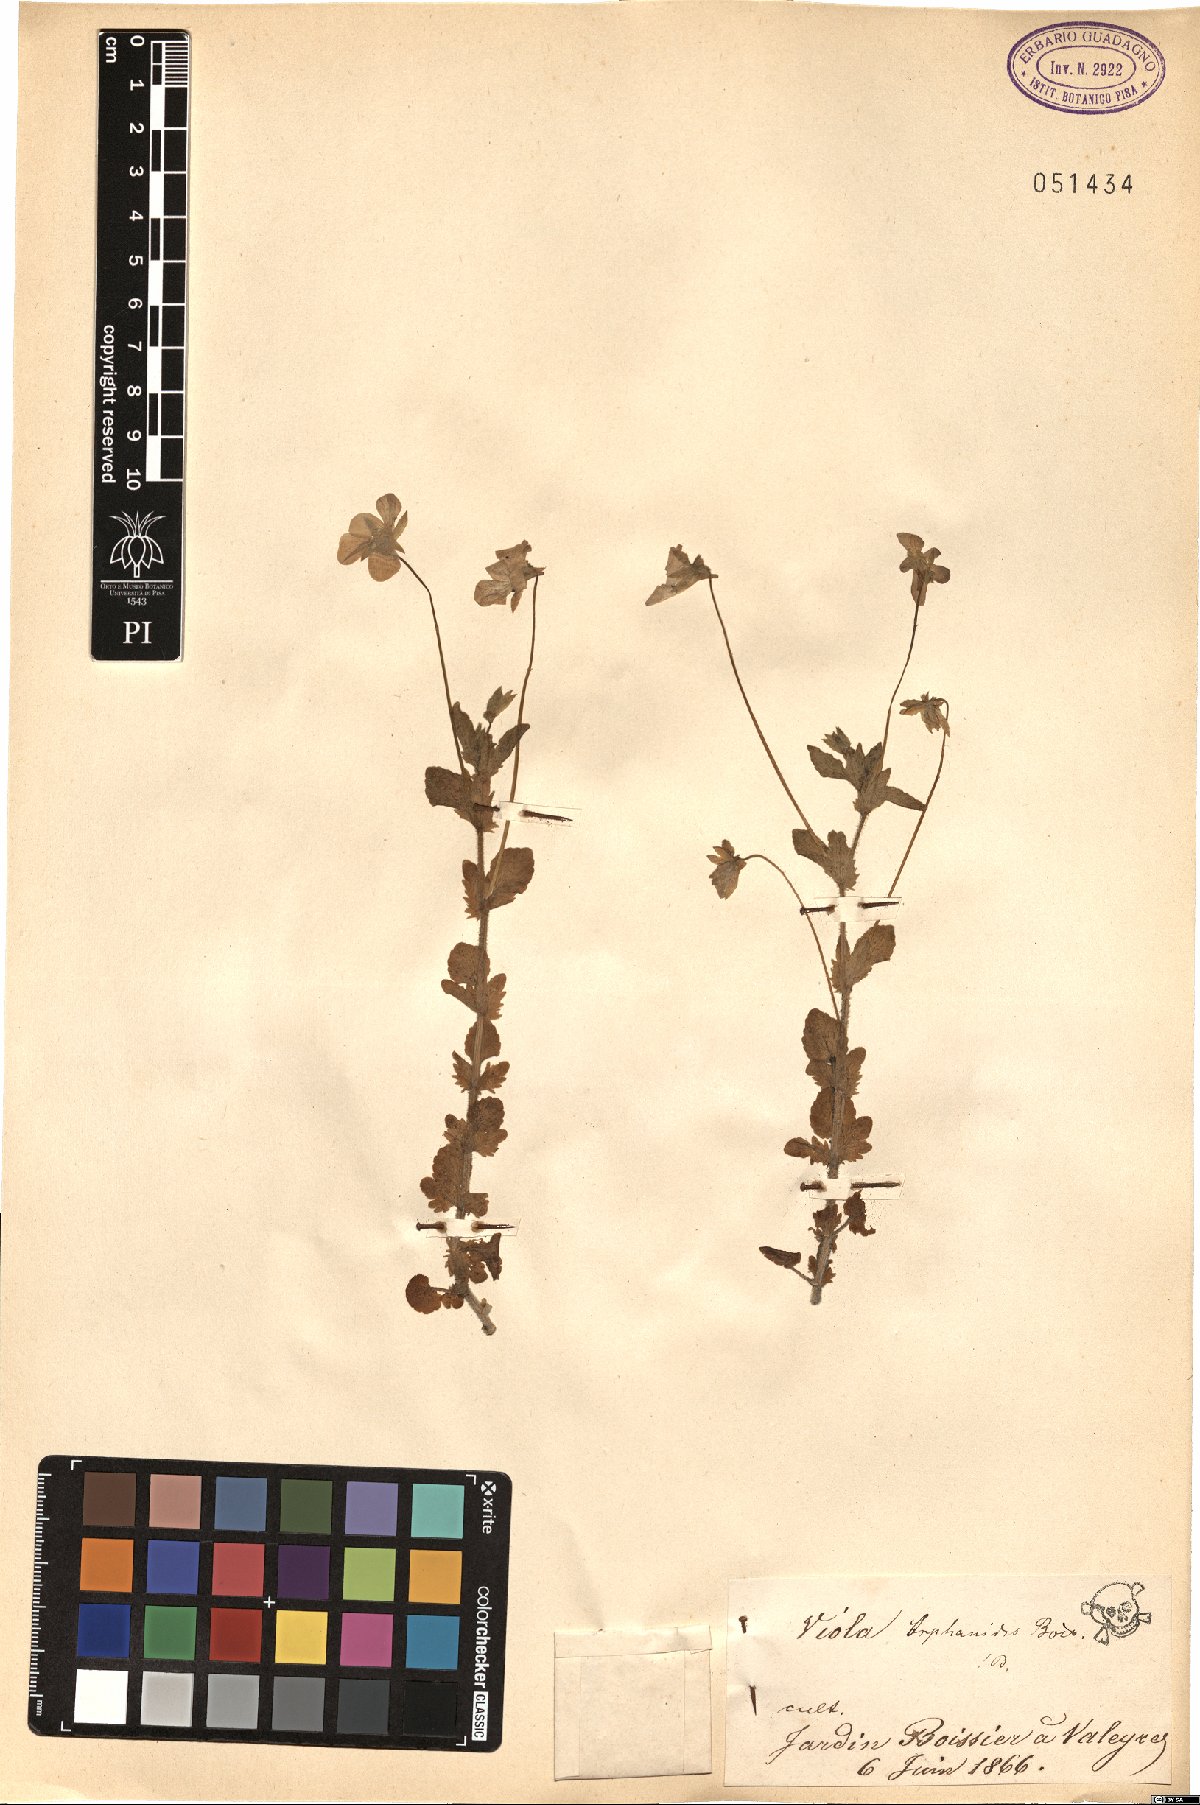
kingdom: Plantae
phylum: Tracheophyta
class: Magnoliopsida
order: Malpighiales
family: Violaceae
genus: Viola
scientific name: Viola orphanidis
